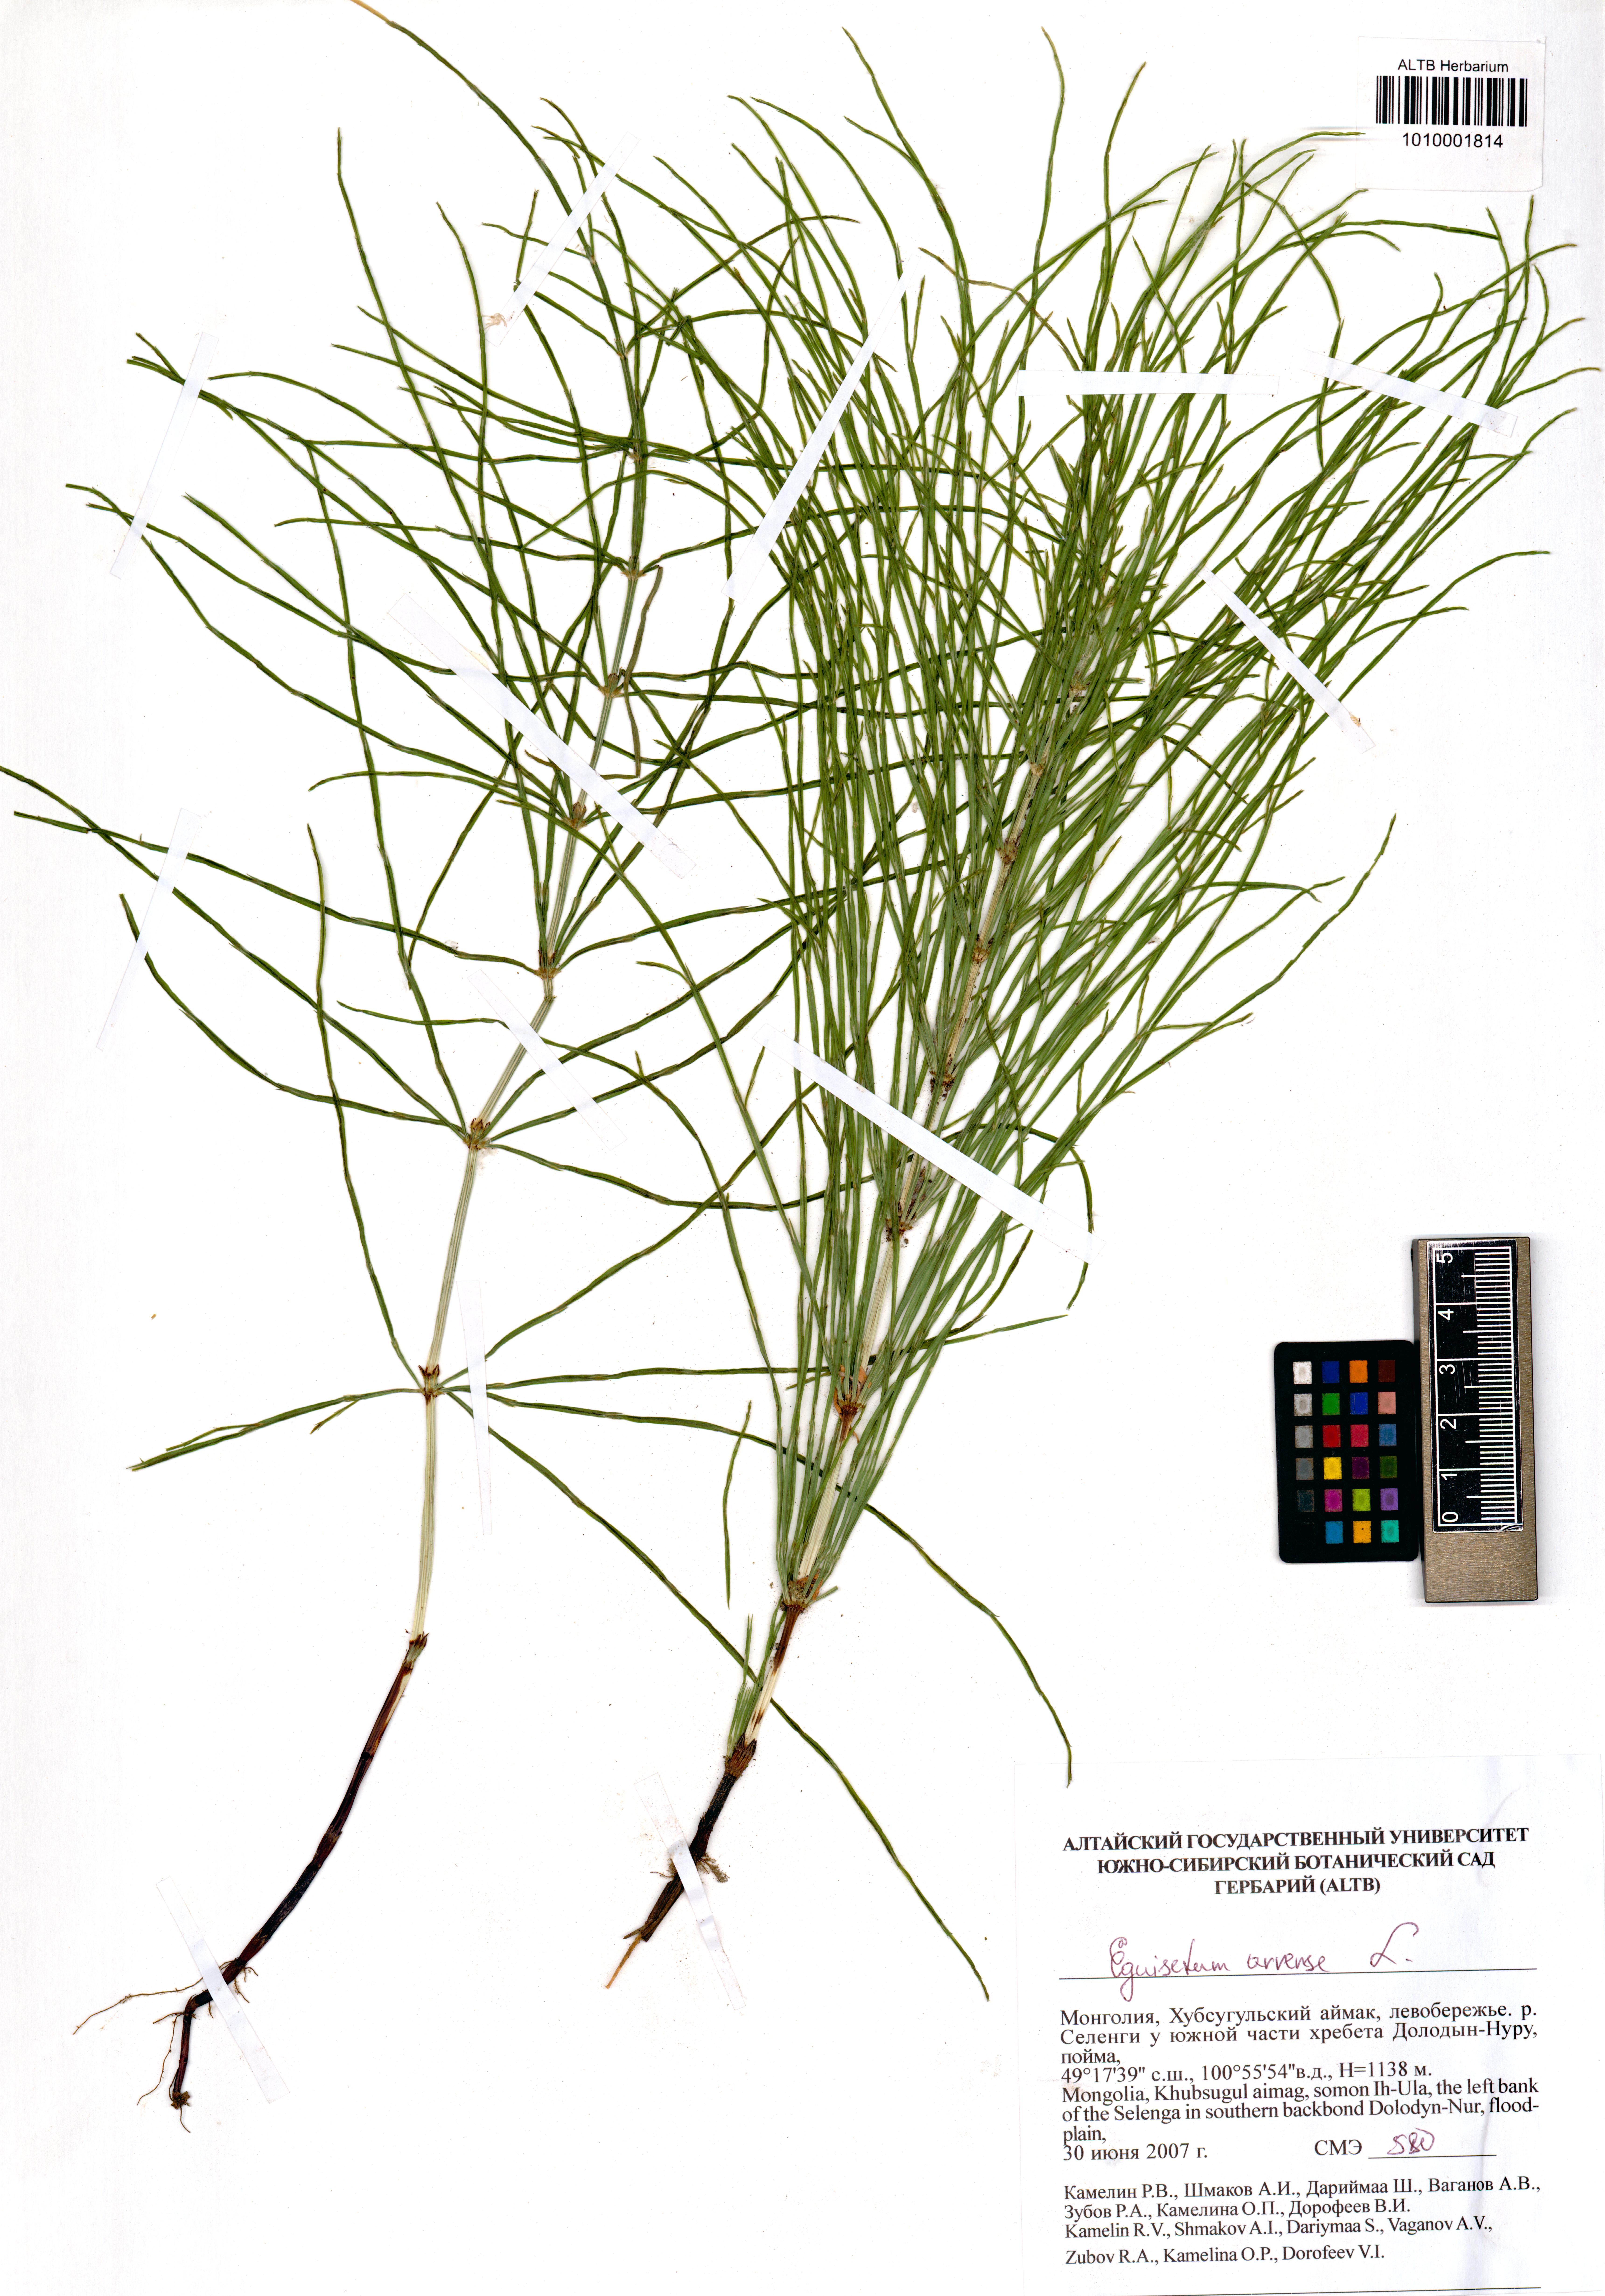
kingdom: Plantae
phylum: Tracheophyta
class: Polypodiopsida
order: Equisetales
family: Equisetaceae
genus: Equisetum
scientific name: Equisetum arvense
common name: Field horsetail
